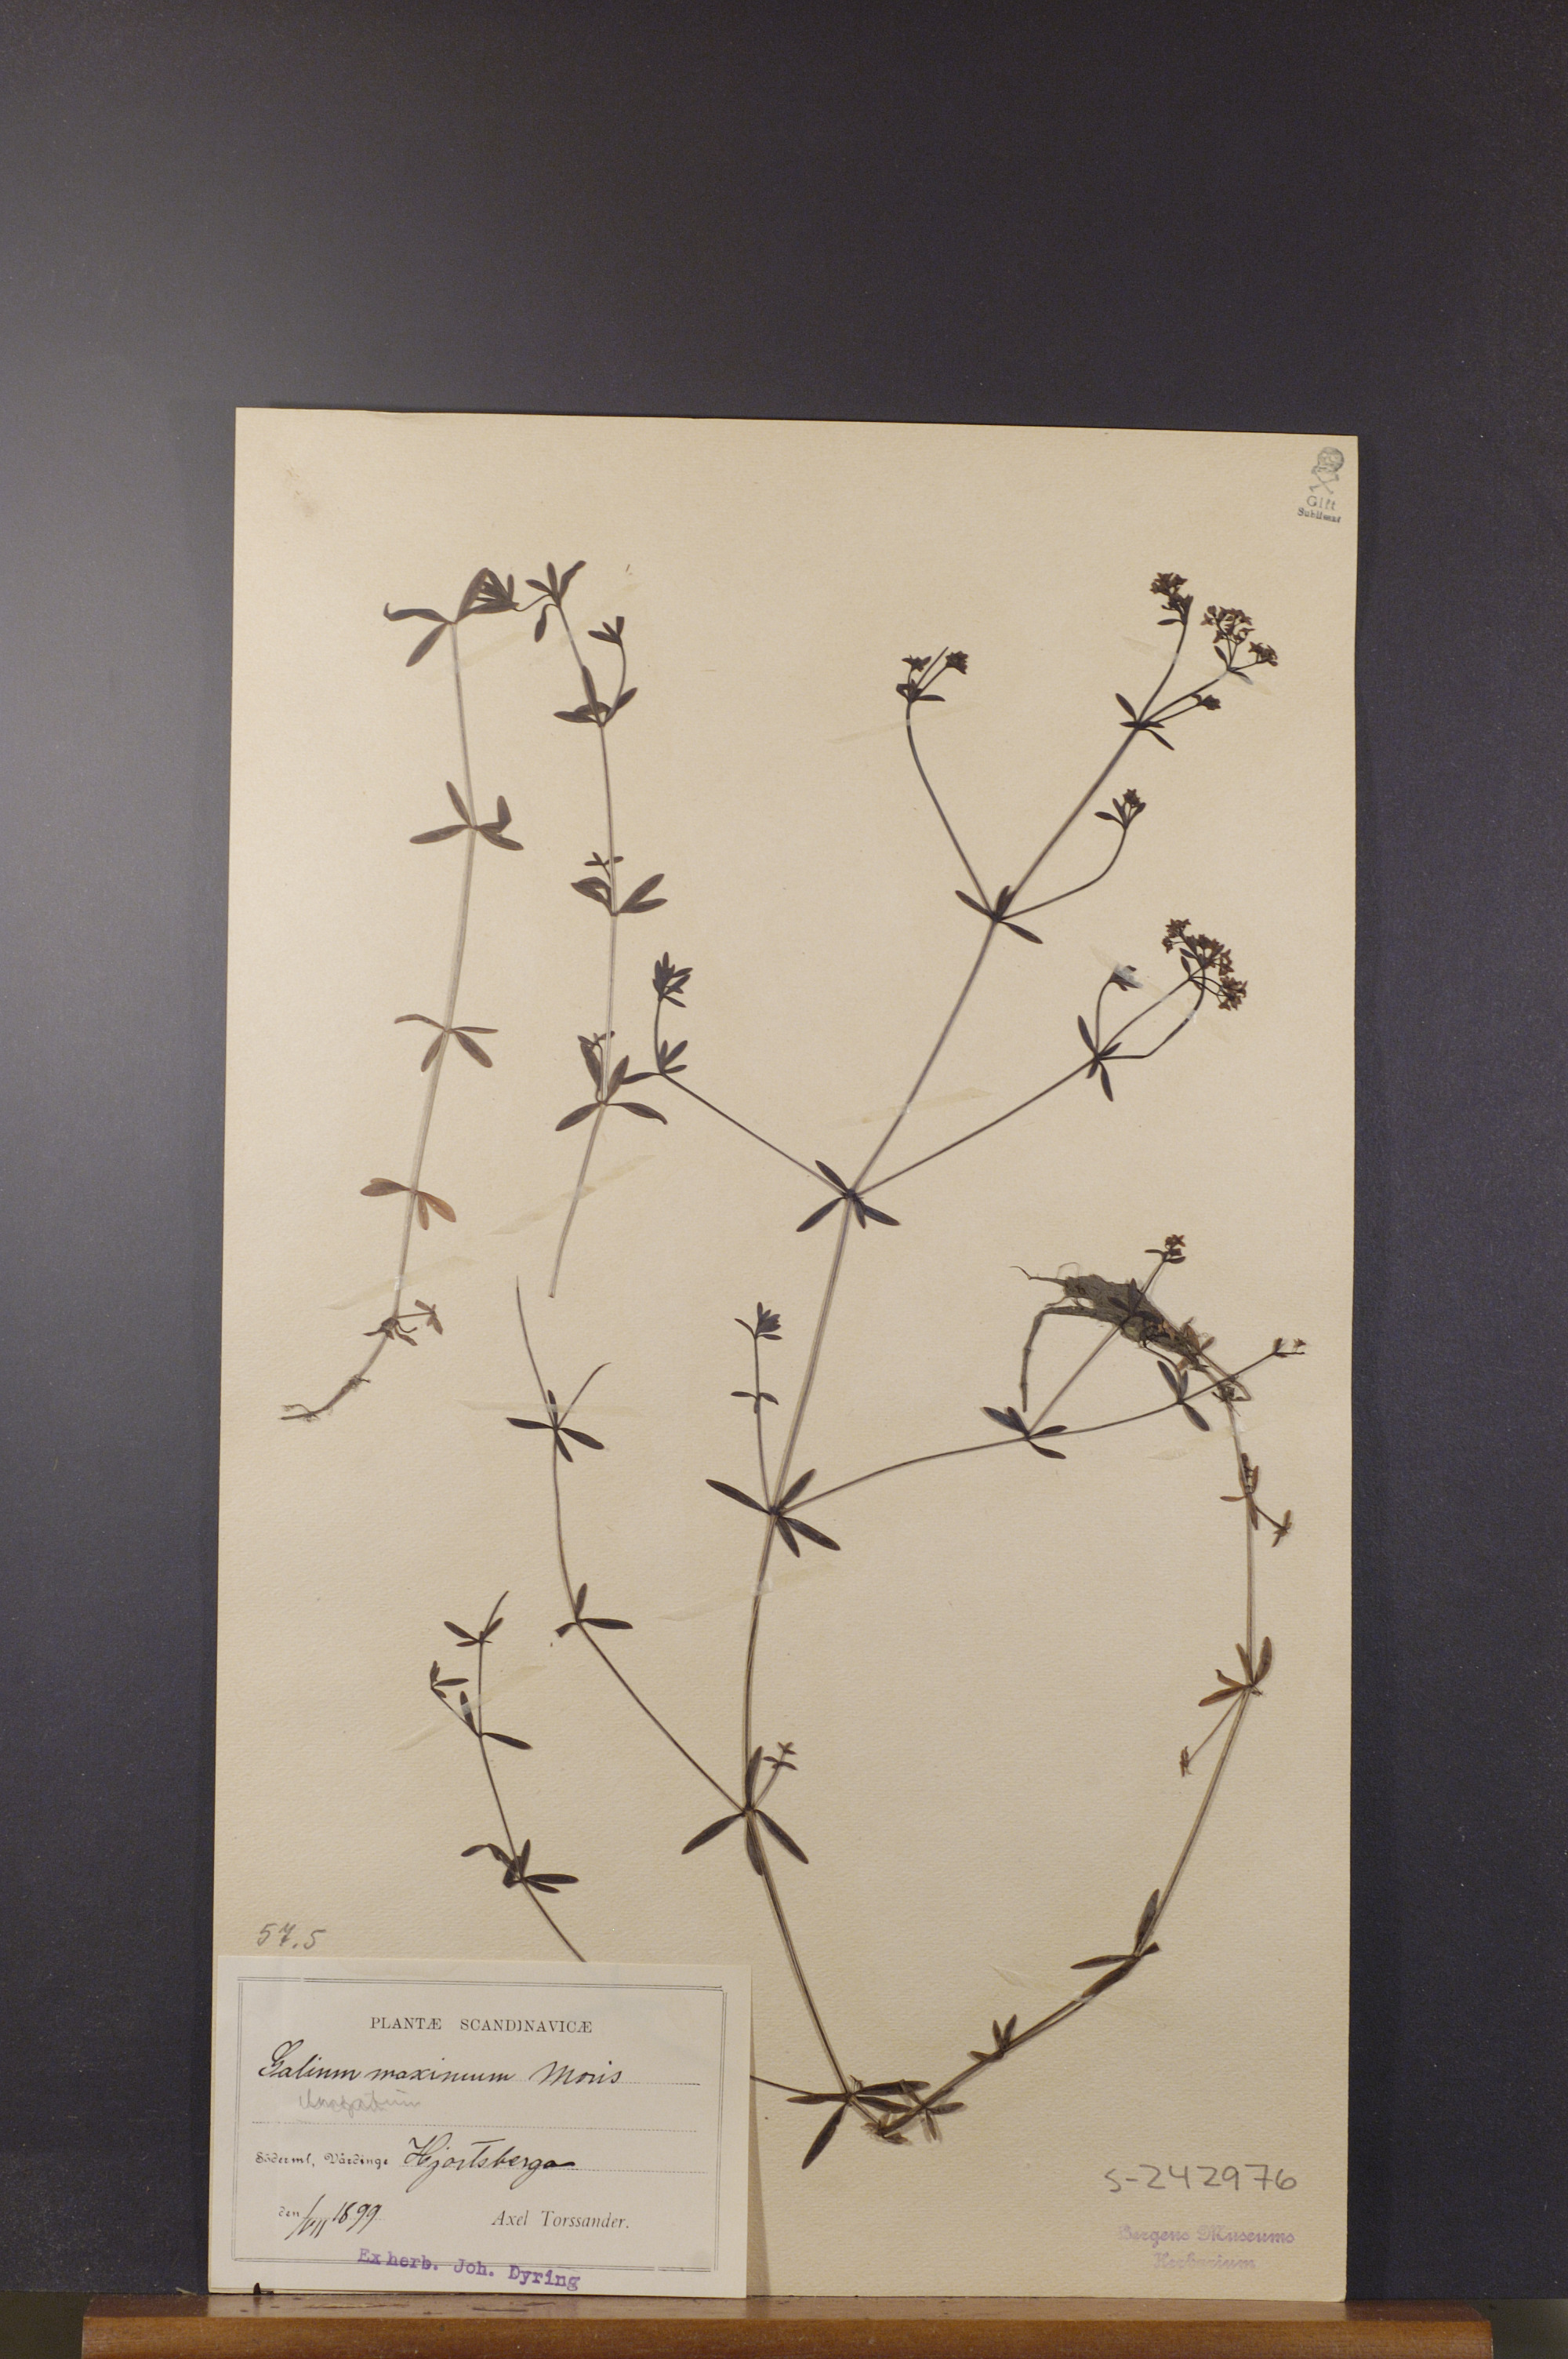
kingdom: Plantae
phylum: Tracheophyta
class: Magnoliopsida
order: Gentianales
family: Rubiaceae
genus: Galium
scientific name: Galium elongatum
